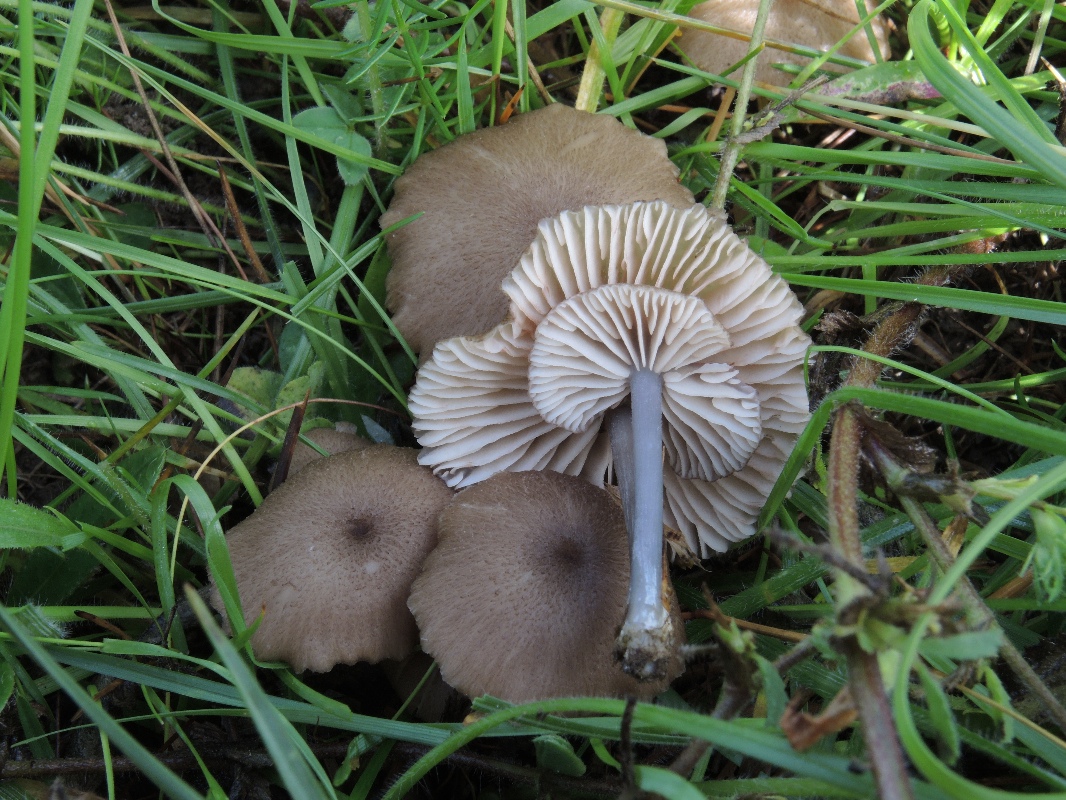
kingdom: Fungi
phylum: Basidiomycota
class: Agaricomycetes
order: Agaricales
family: Entolomataceae
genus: Entoloma
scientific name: Entoloma isborscanum
